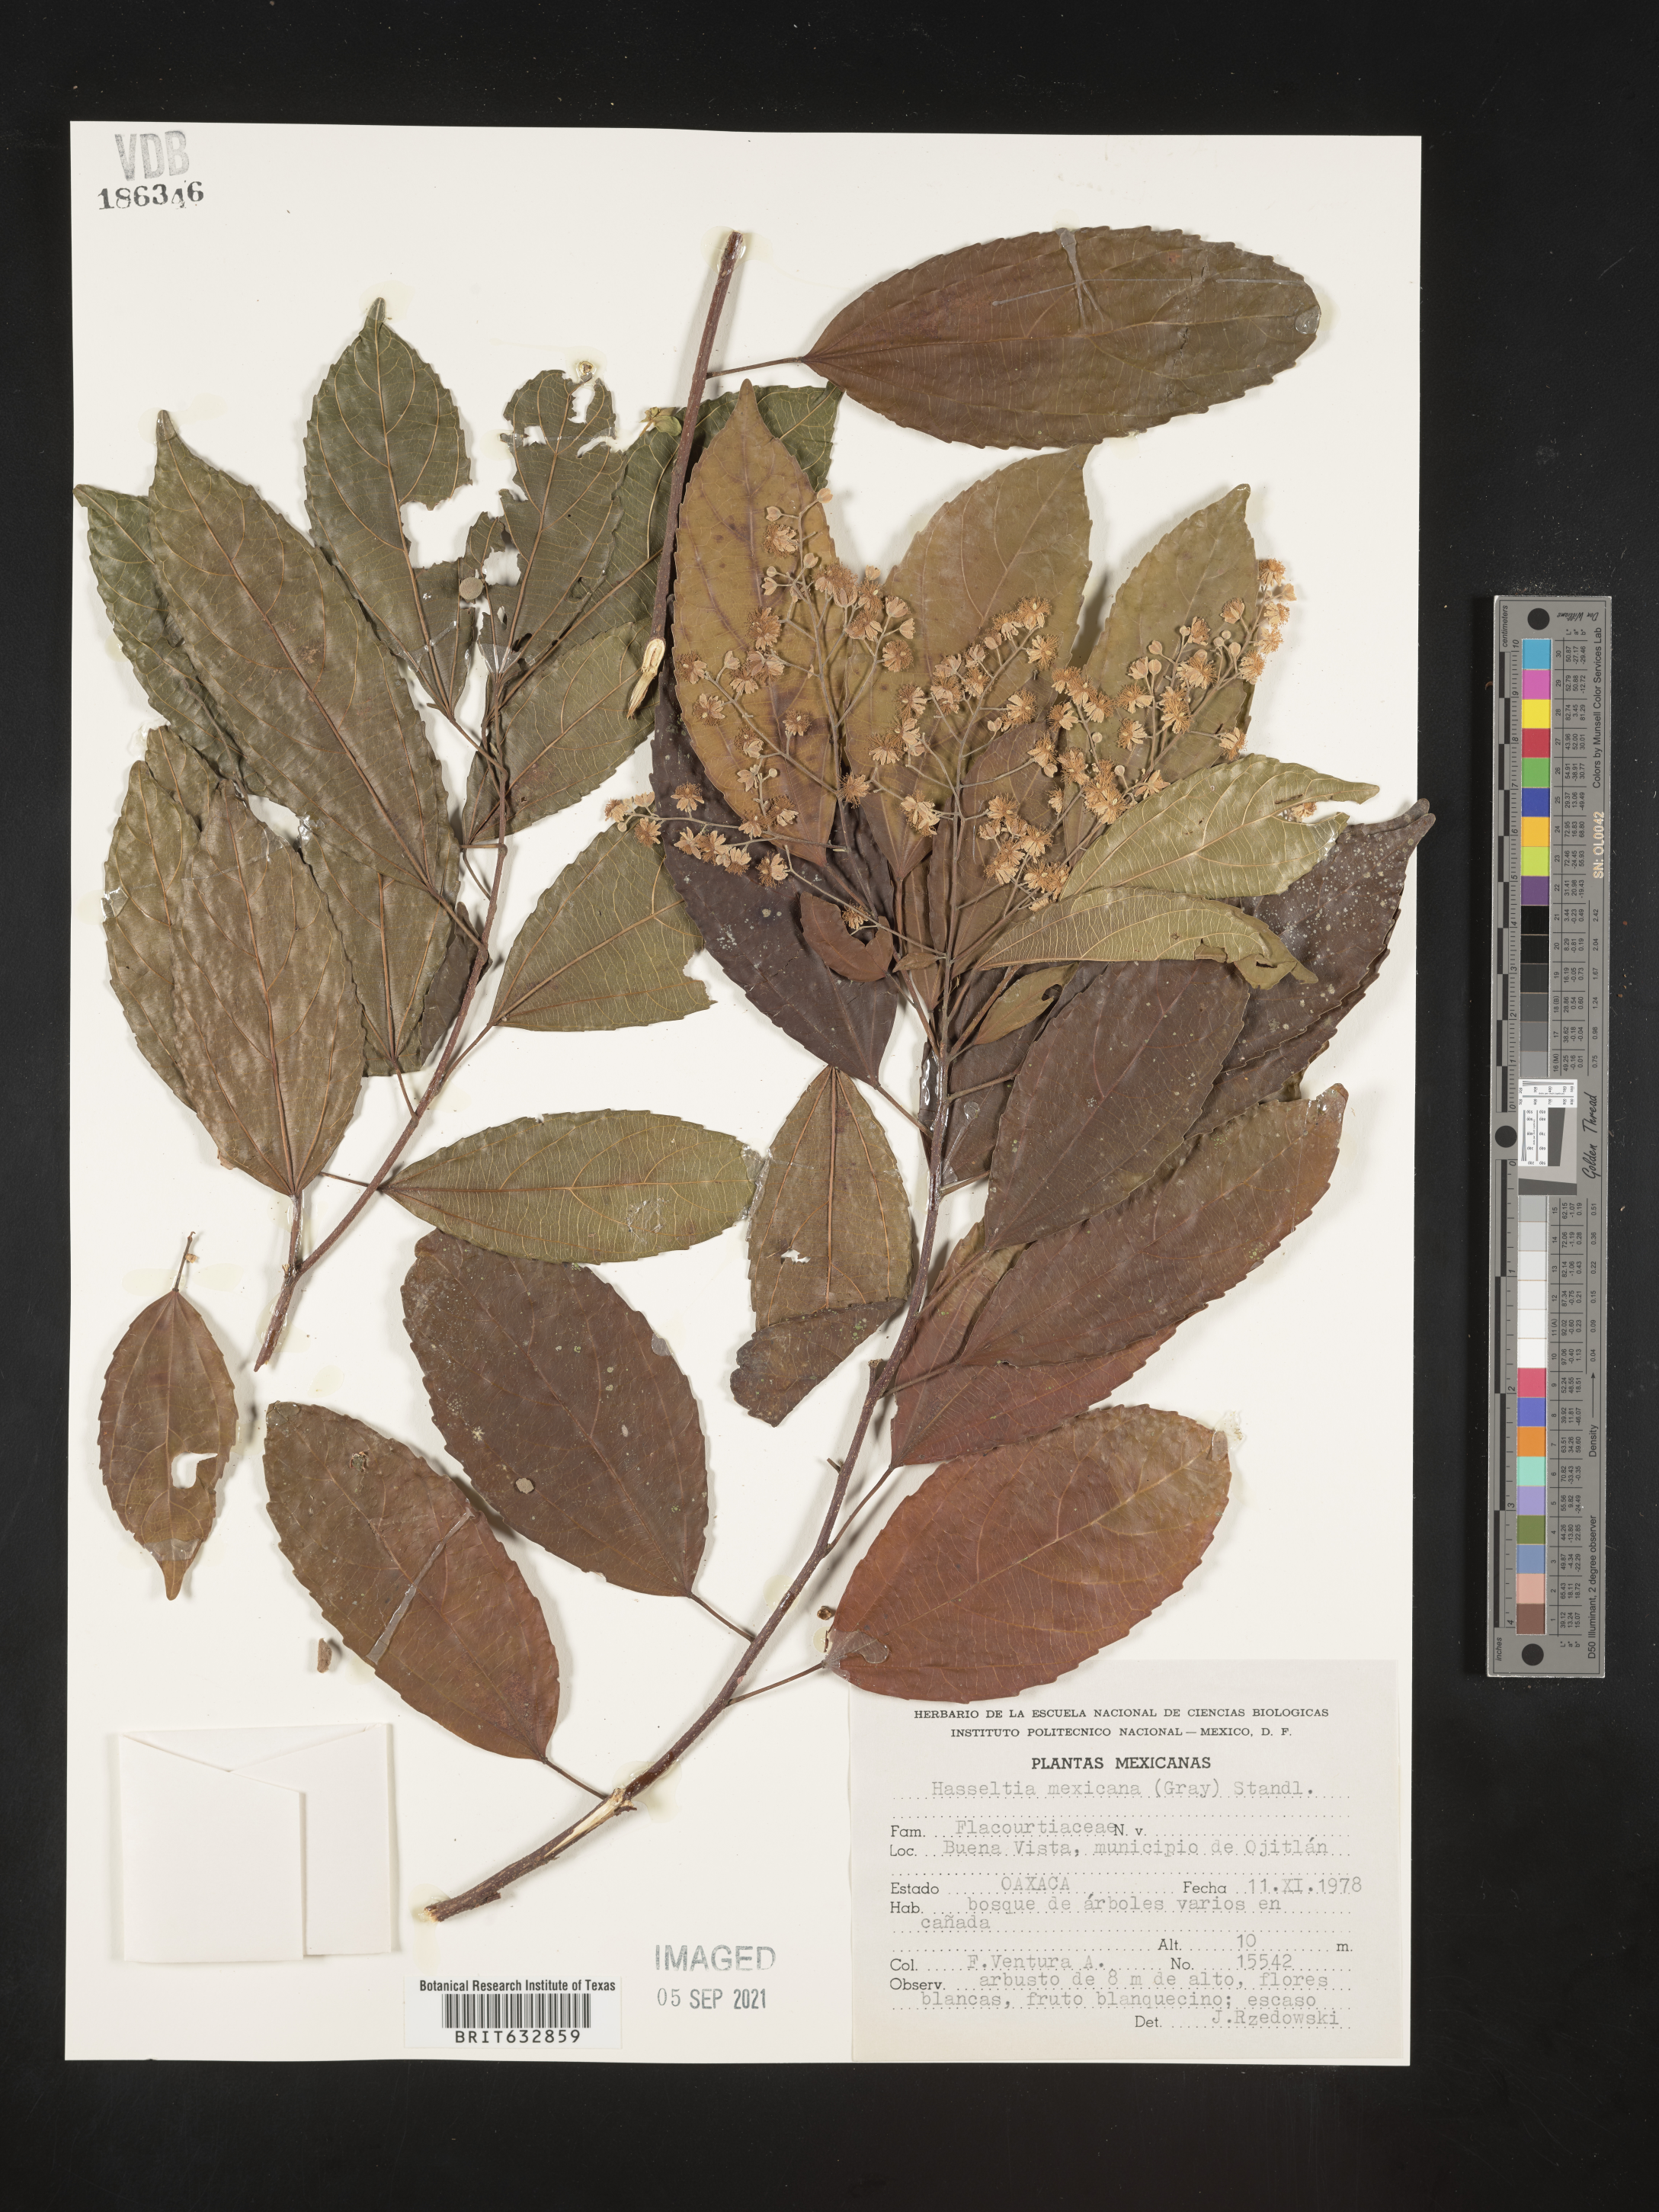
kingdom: Plantae
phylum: Tracheophyta
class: Magnoliopsida
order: Malpighiales
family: Salicaceae
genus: Hasseltia
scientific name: Hasseltia
